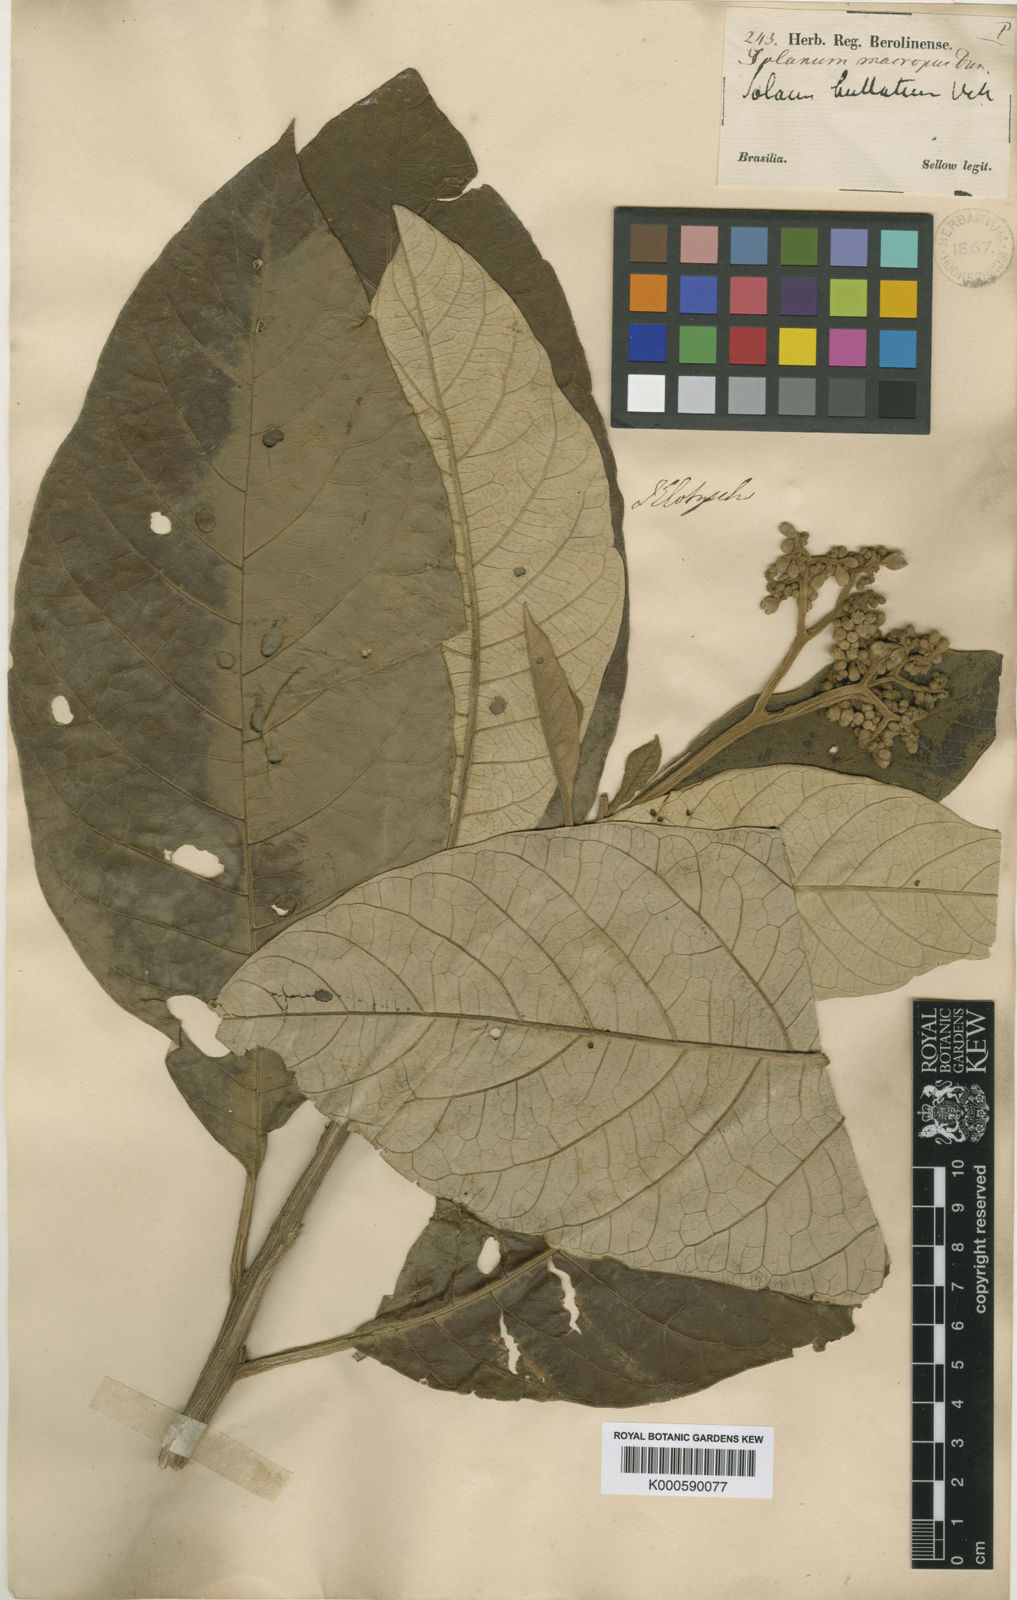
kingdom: Plantae
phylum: Tracheophyta
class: Magnoliopsida
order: Solanales
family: Solanaceae
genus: Solanum
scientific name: Solanum bullatum
